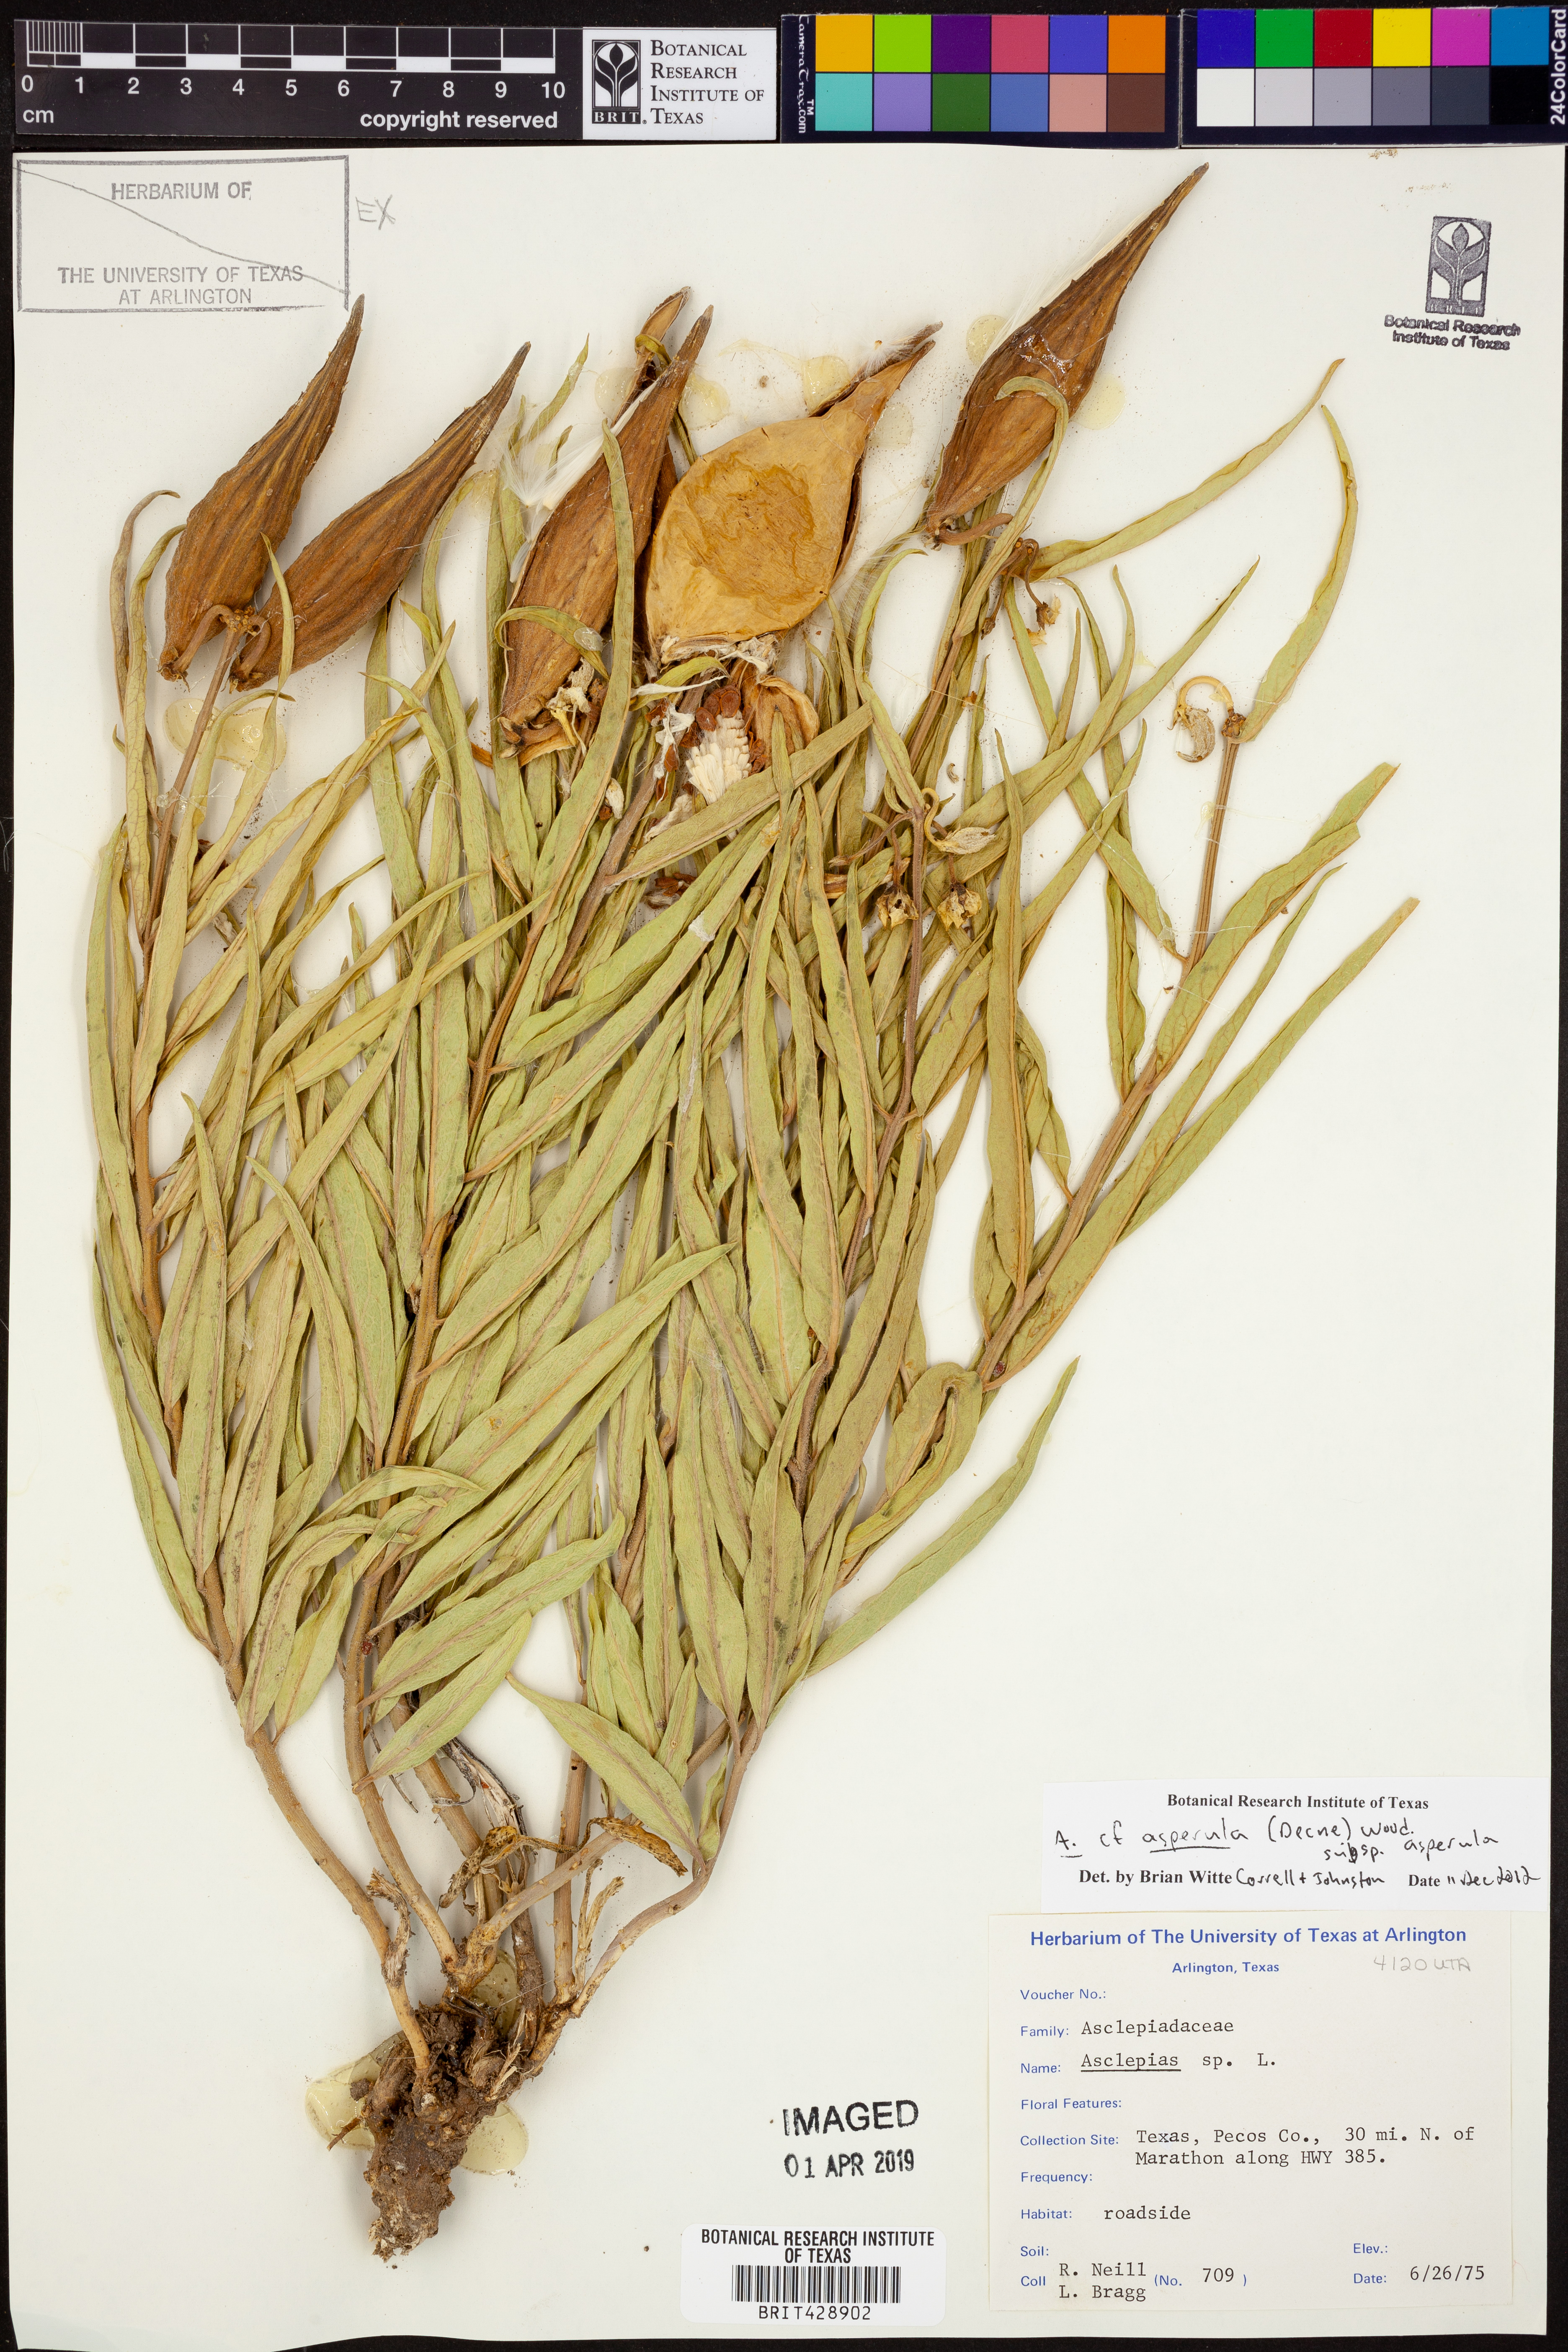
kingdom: Plantae
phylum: Tracheophyta
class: Magnoliopsida
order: Gentianales
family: Apocynaceae
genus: Asclepias
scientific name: Asclepias asperula
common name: Antelope horns
